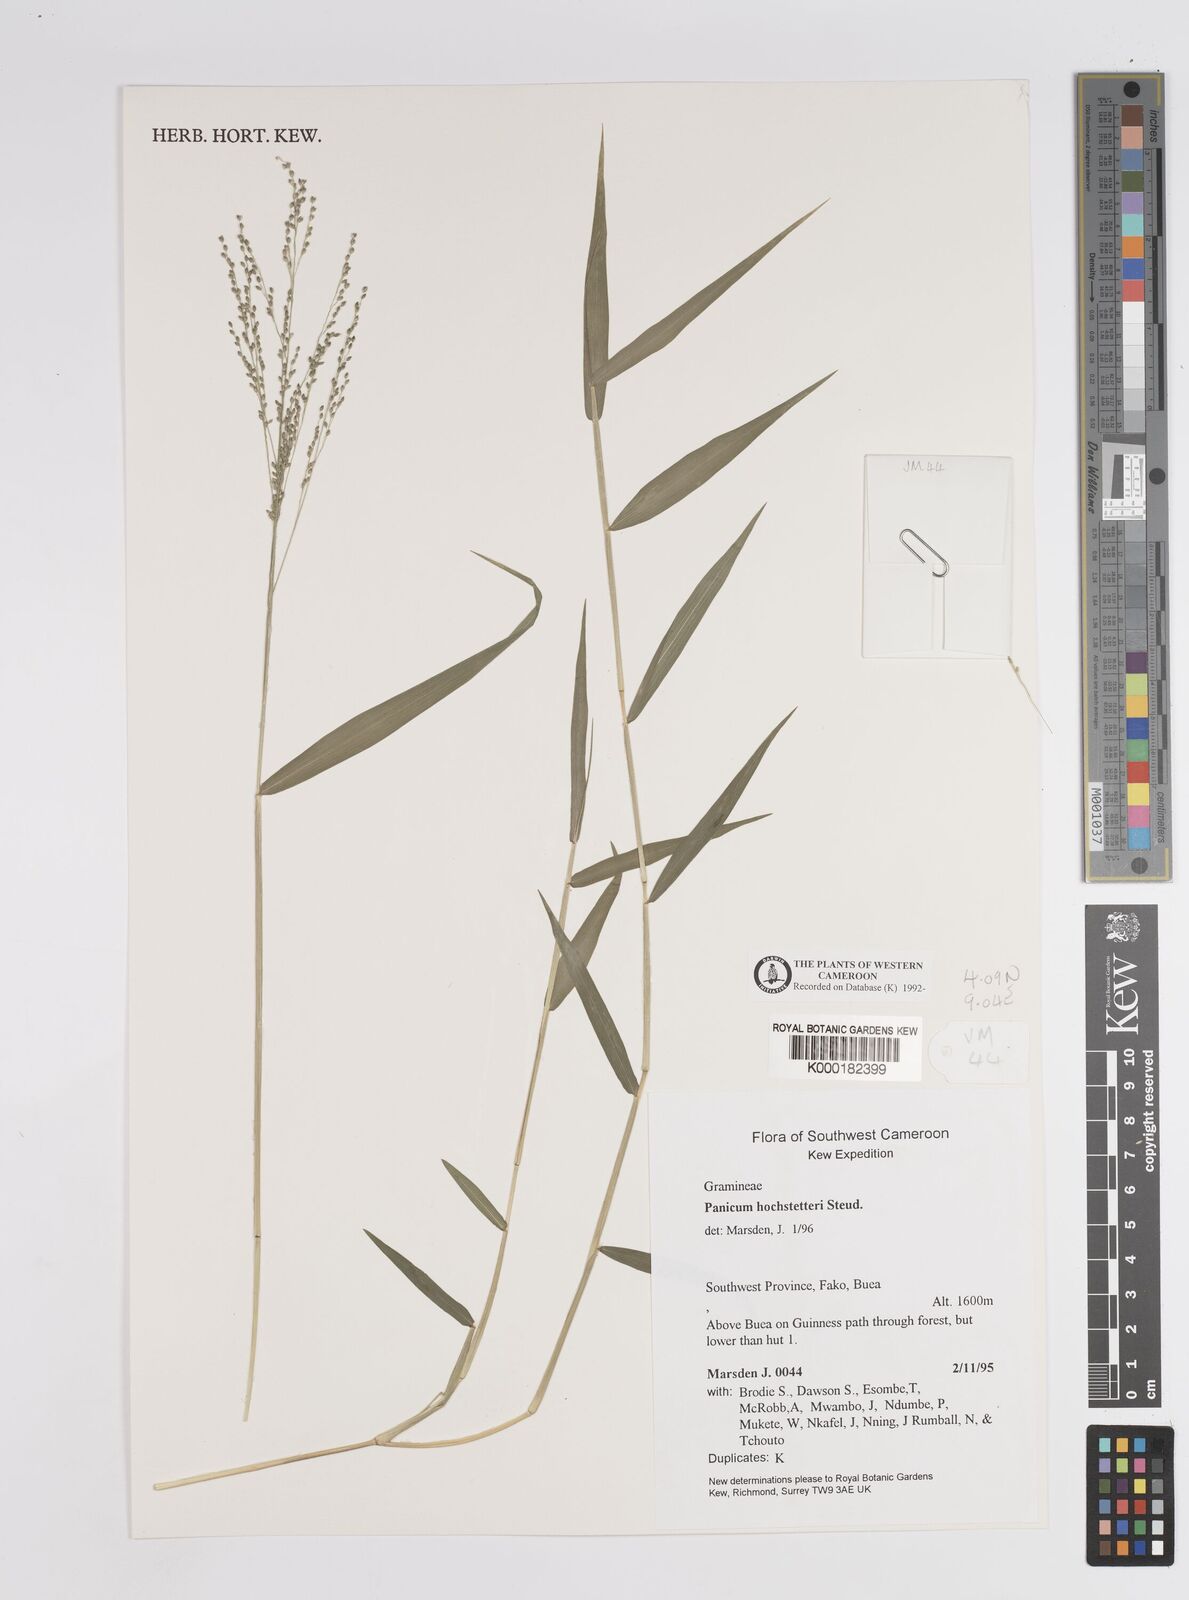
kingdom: Plantae
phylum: Tracheophyta
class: Liliopsida
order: Poales
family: Poaceae
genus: Panicum
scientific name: Panicum hochstetteri
